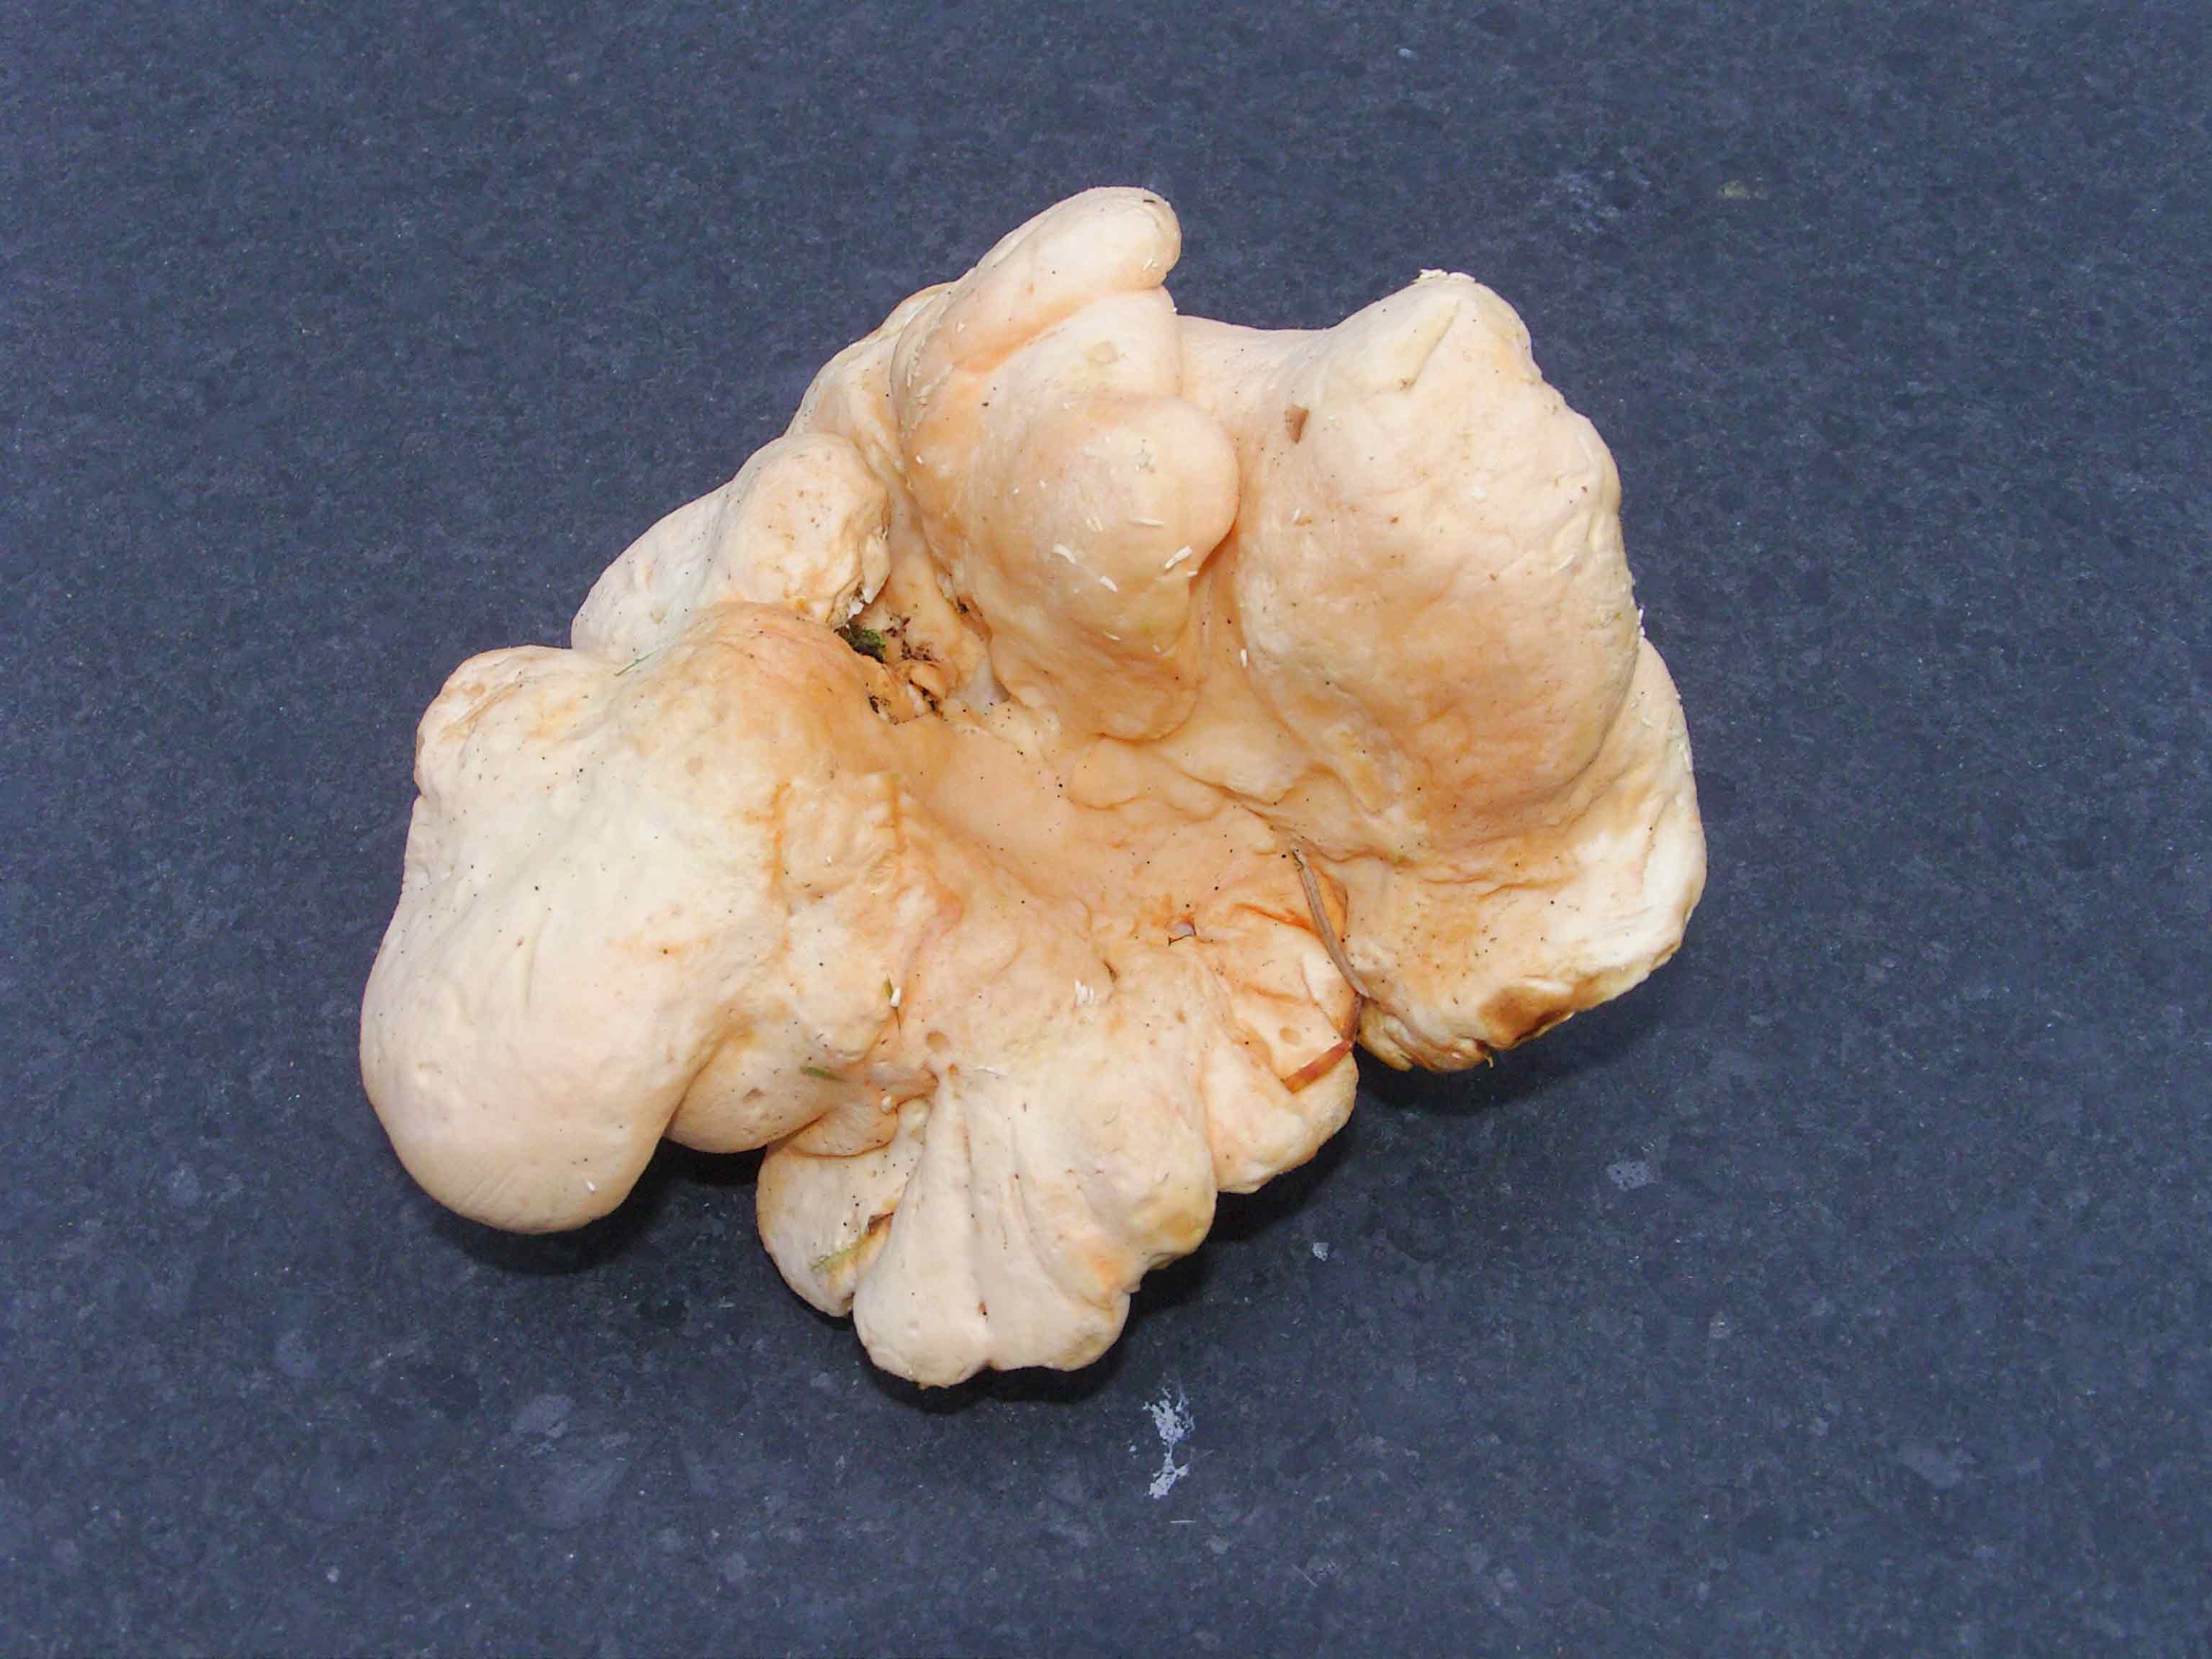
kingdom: Fungi
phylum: Basidiomycota
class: Agaricomycetes
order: Cantharellales
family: Hydnaceae
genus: Hydnum
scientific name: Hydnum repandum
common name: almindelig pigsvamp
